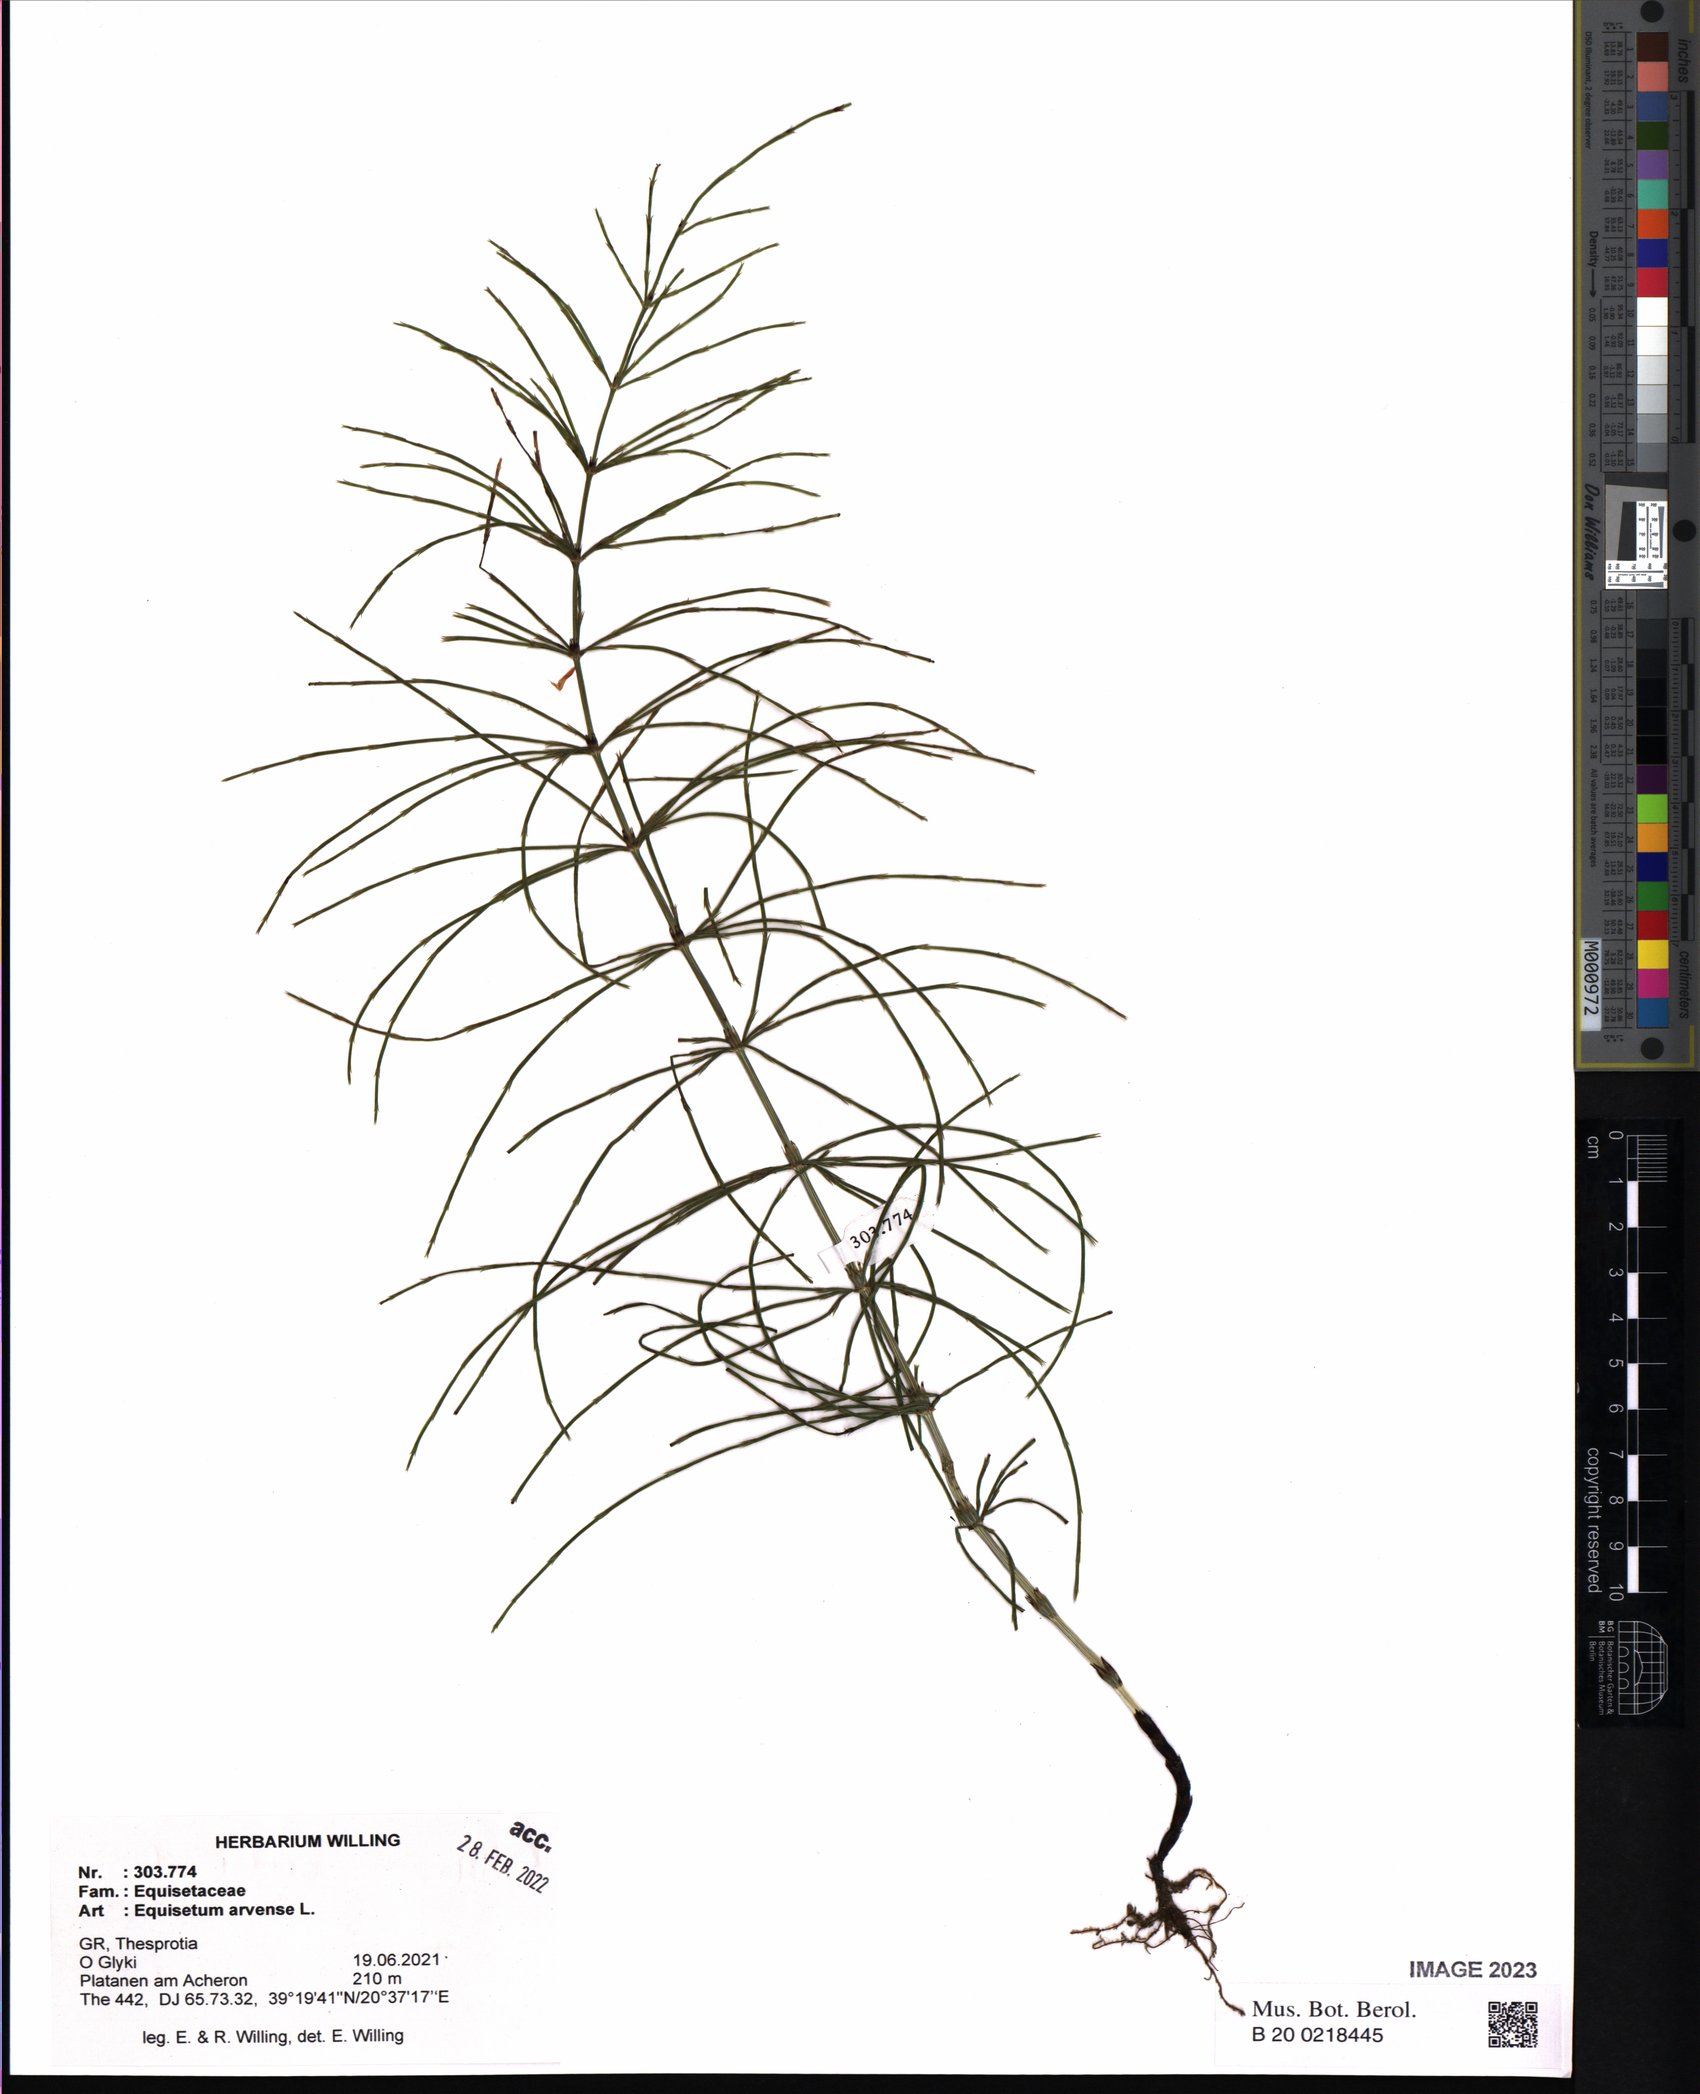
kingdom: Plantae
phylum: Tracheophyta
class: Polypodiopsida
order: Equisetales
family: Equisetaceae
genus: Equisetum
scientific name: Equisetum arvense
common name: Field horsetail
